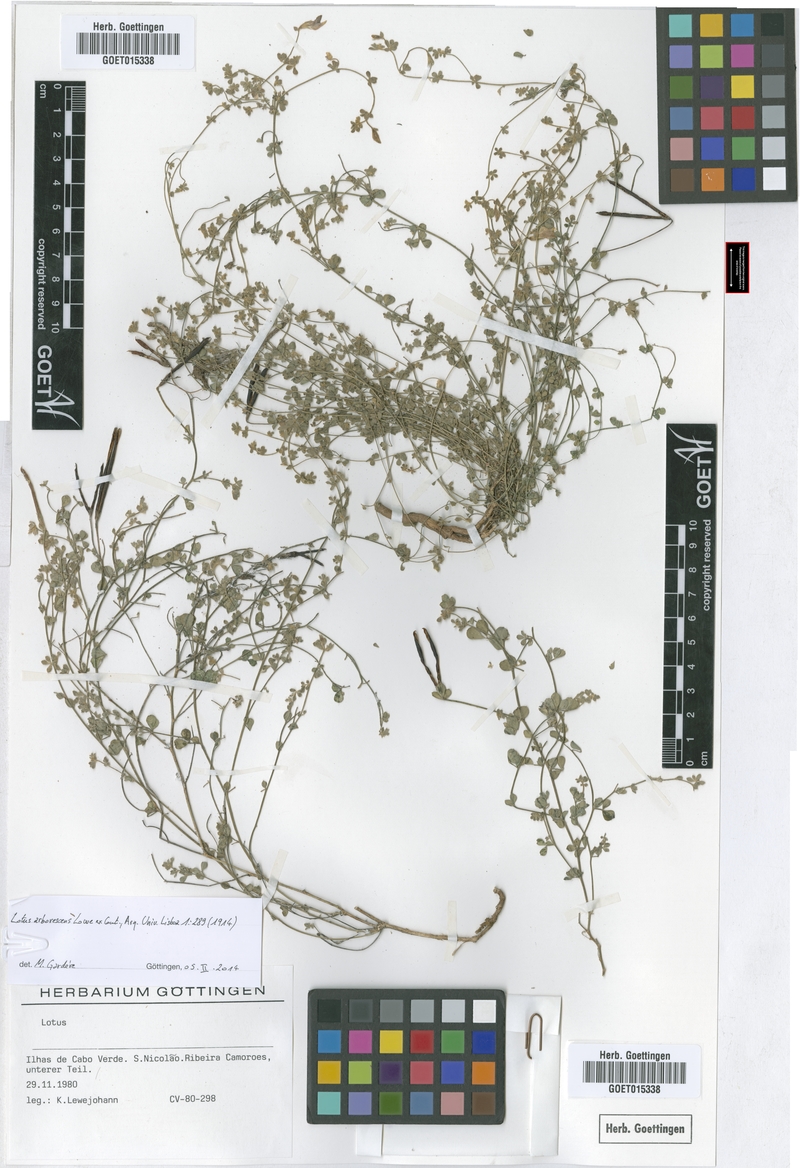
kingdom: Plantae
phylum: Tracheophyta
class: Magnoliopsida
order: Fabales
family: Fabaceae
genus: Lotus
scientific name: Lotus purpureus
